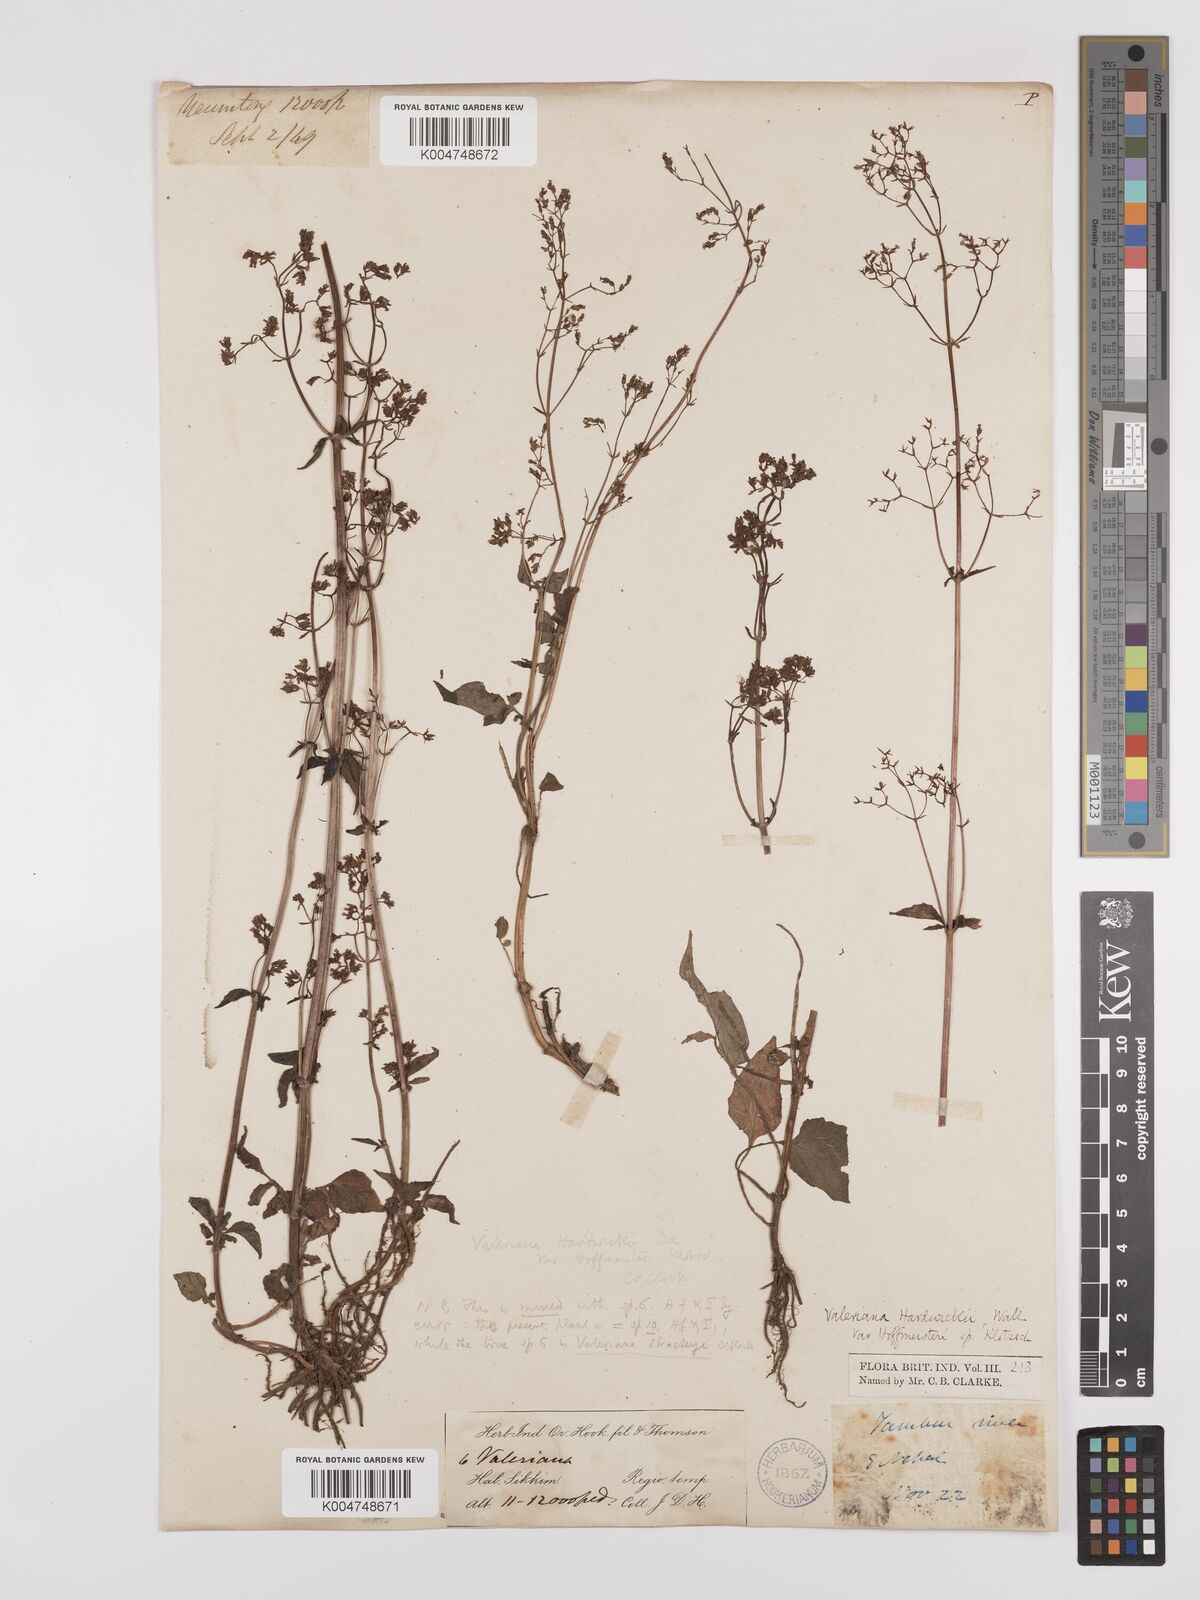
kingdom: Plantae
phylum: Tracheophyta
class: Magnoliopsida
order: Dipsacales
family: Caprifoliaceae
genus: Valeriana
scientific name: Valeriana hardwickei
